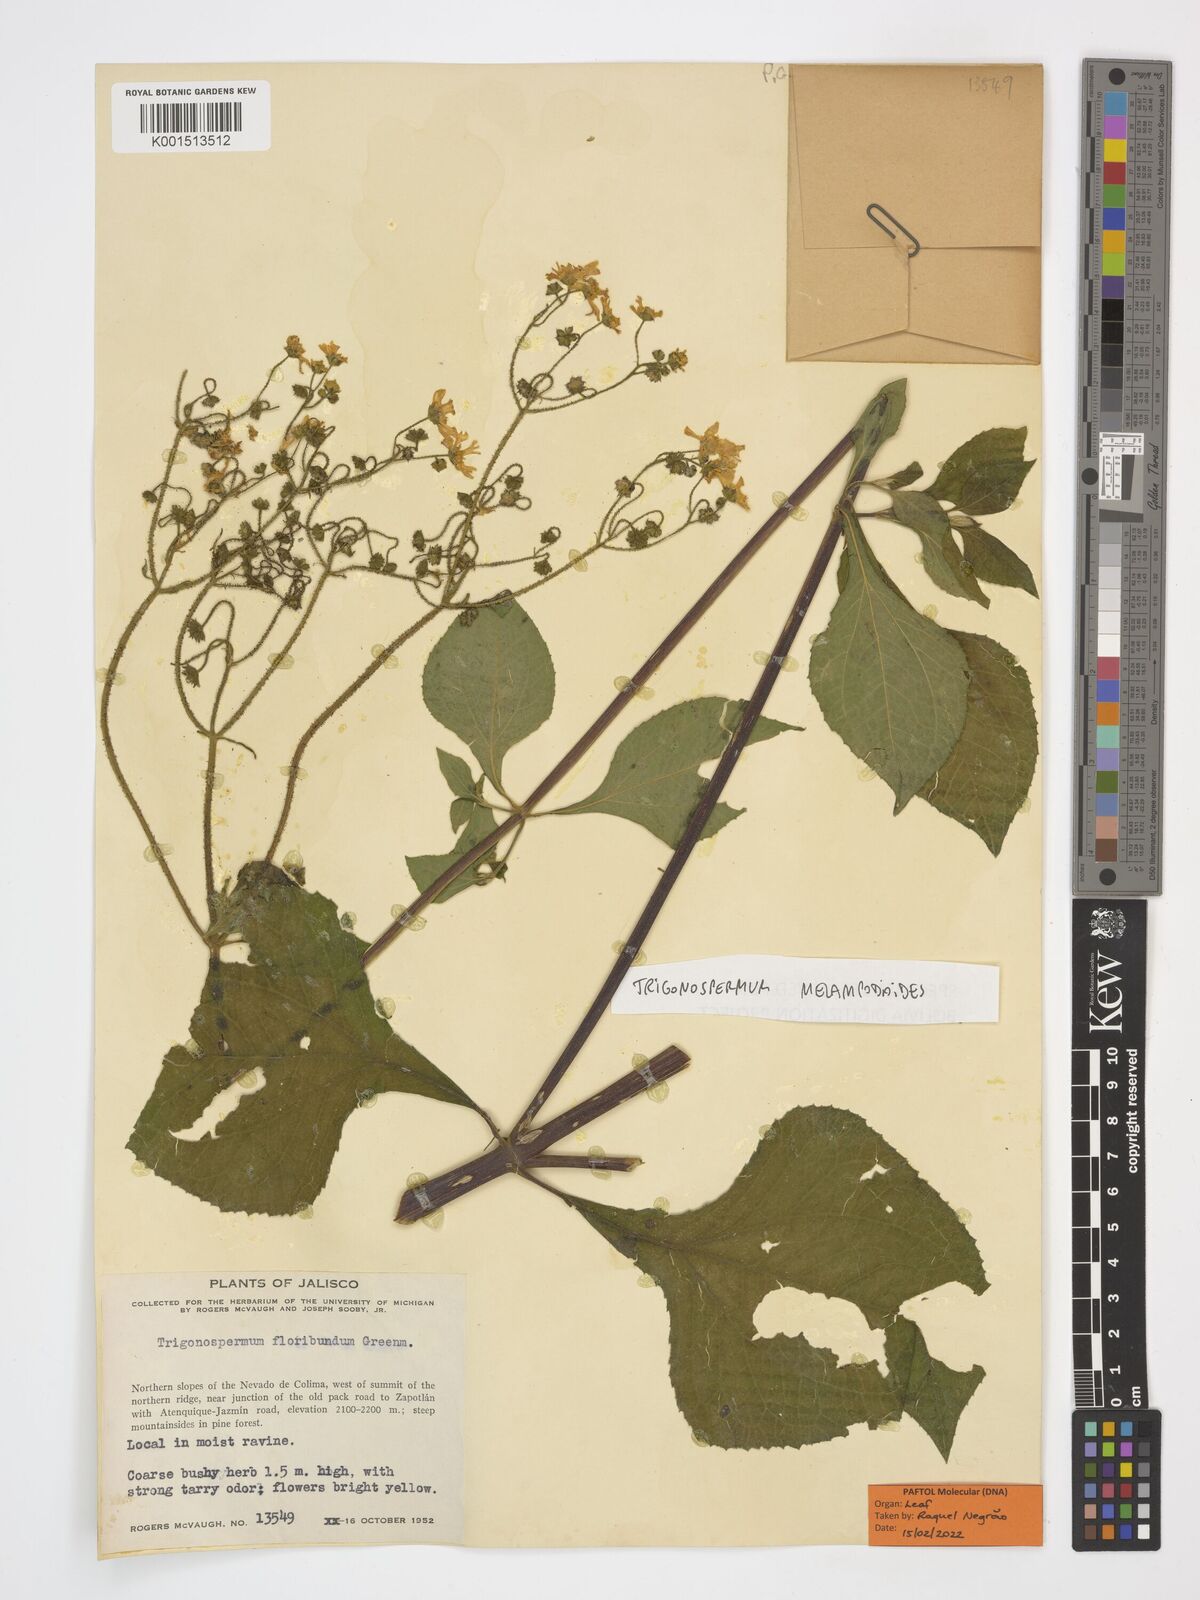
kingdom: Plantae
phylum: Tracheophyta
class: Magnoliopsida
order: Asterales
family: Asteraceae
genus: Trigonospermum
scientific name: Trigonospermum melampodioides
